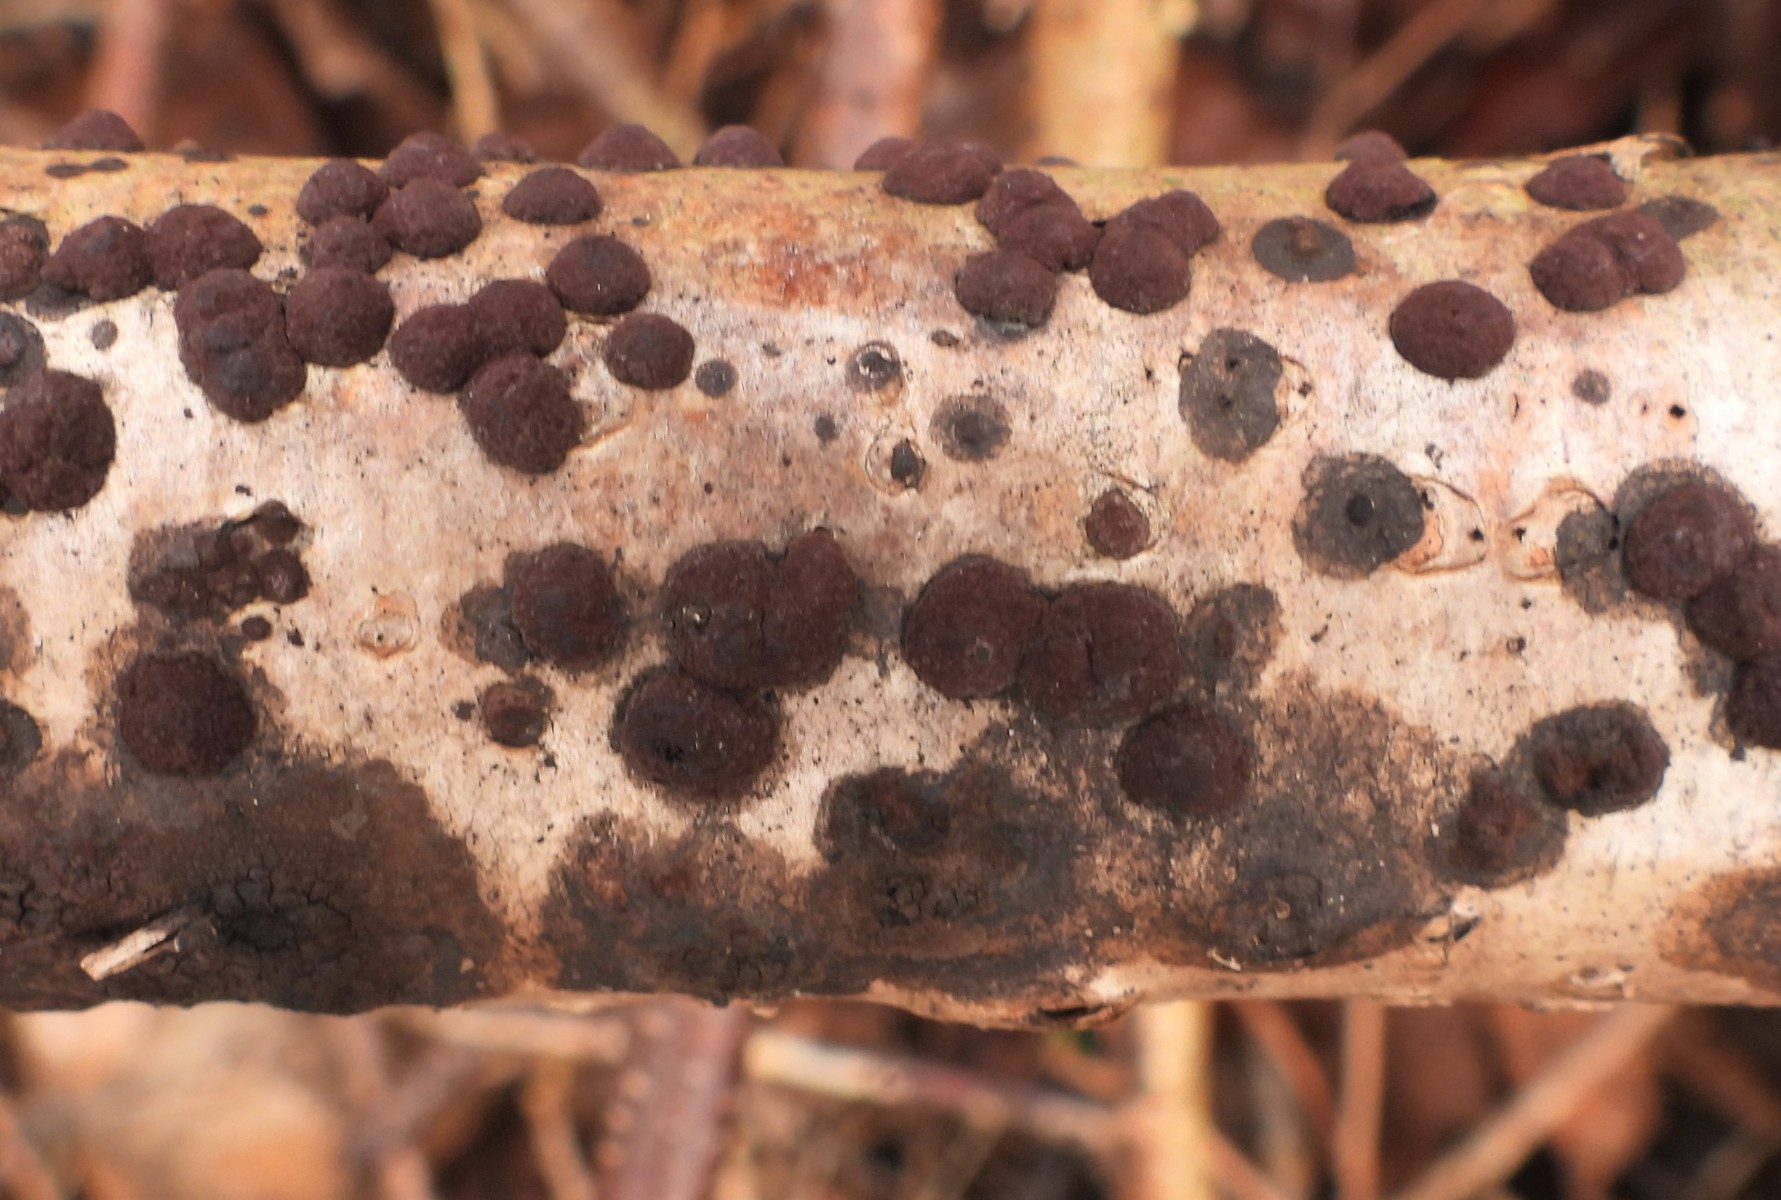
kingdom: Fungi
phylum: Ascomycota
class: Sordariomycetes
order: Xylariales
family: Hypoxylaceae
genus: Hypoxylon
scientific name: Hypoxylon fuscum
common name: kegleformet kulbær
